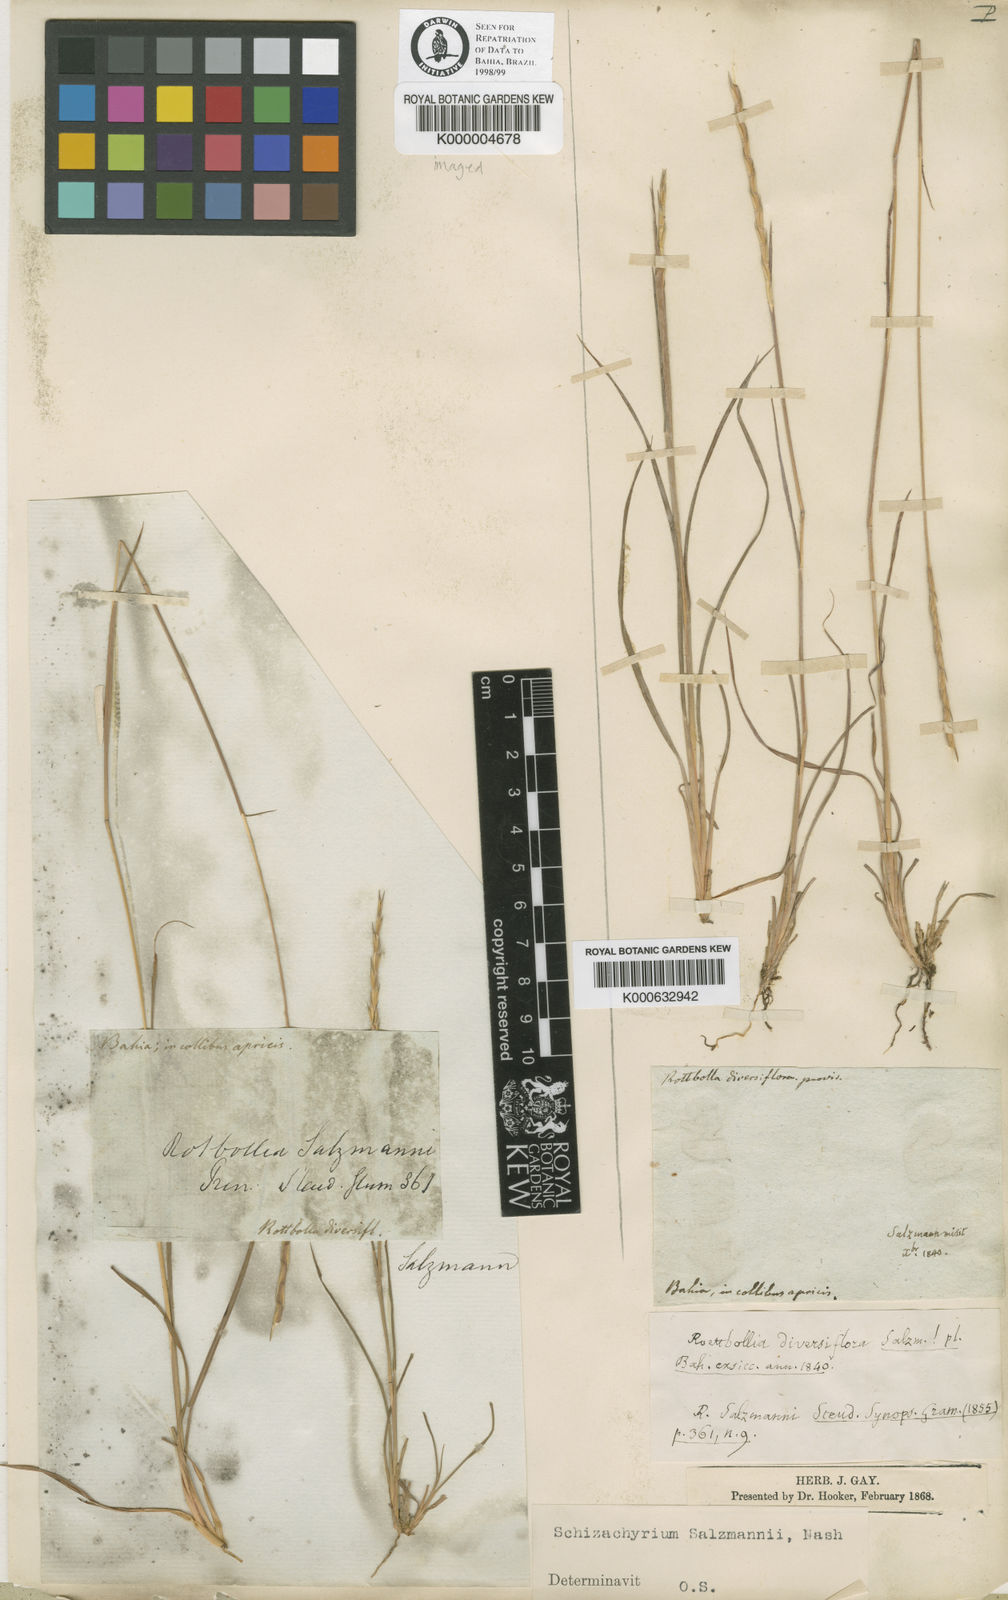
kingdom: Plantae
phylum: Tracheophyta
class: Liliopsida
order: Poales
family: Poaceae
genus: Andropogon
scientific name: Andropogon salzmannii
